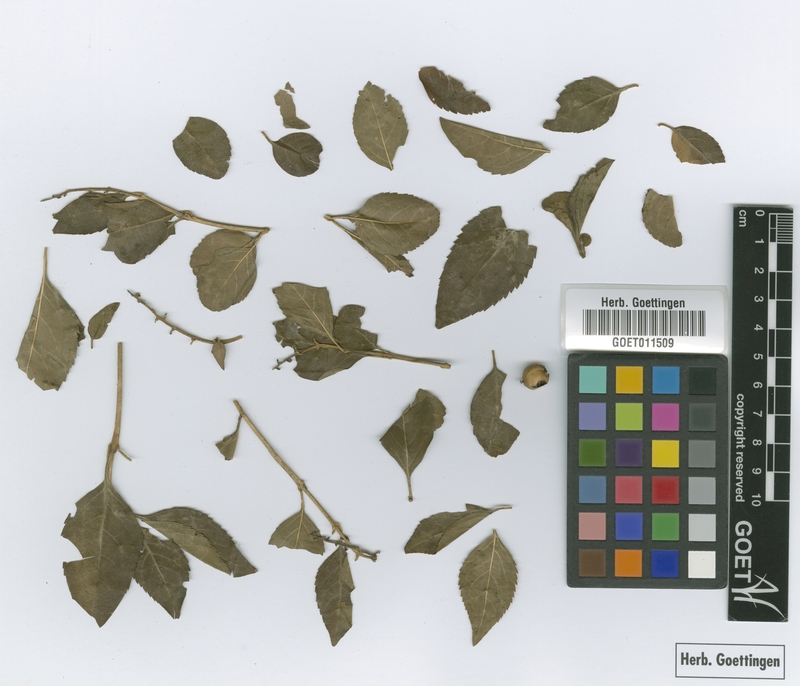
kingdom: Plantae
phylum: Tracheophyta
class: Magnoliopsida
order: Lamiales
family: Verbenaceae
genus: Duranta
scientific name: Duranta serratifolia
